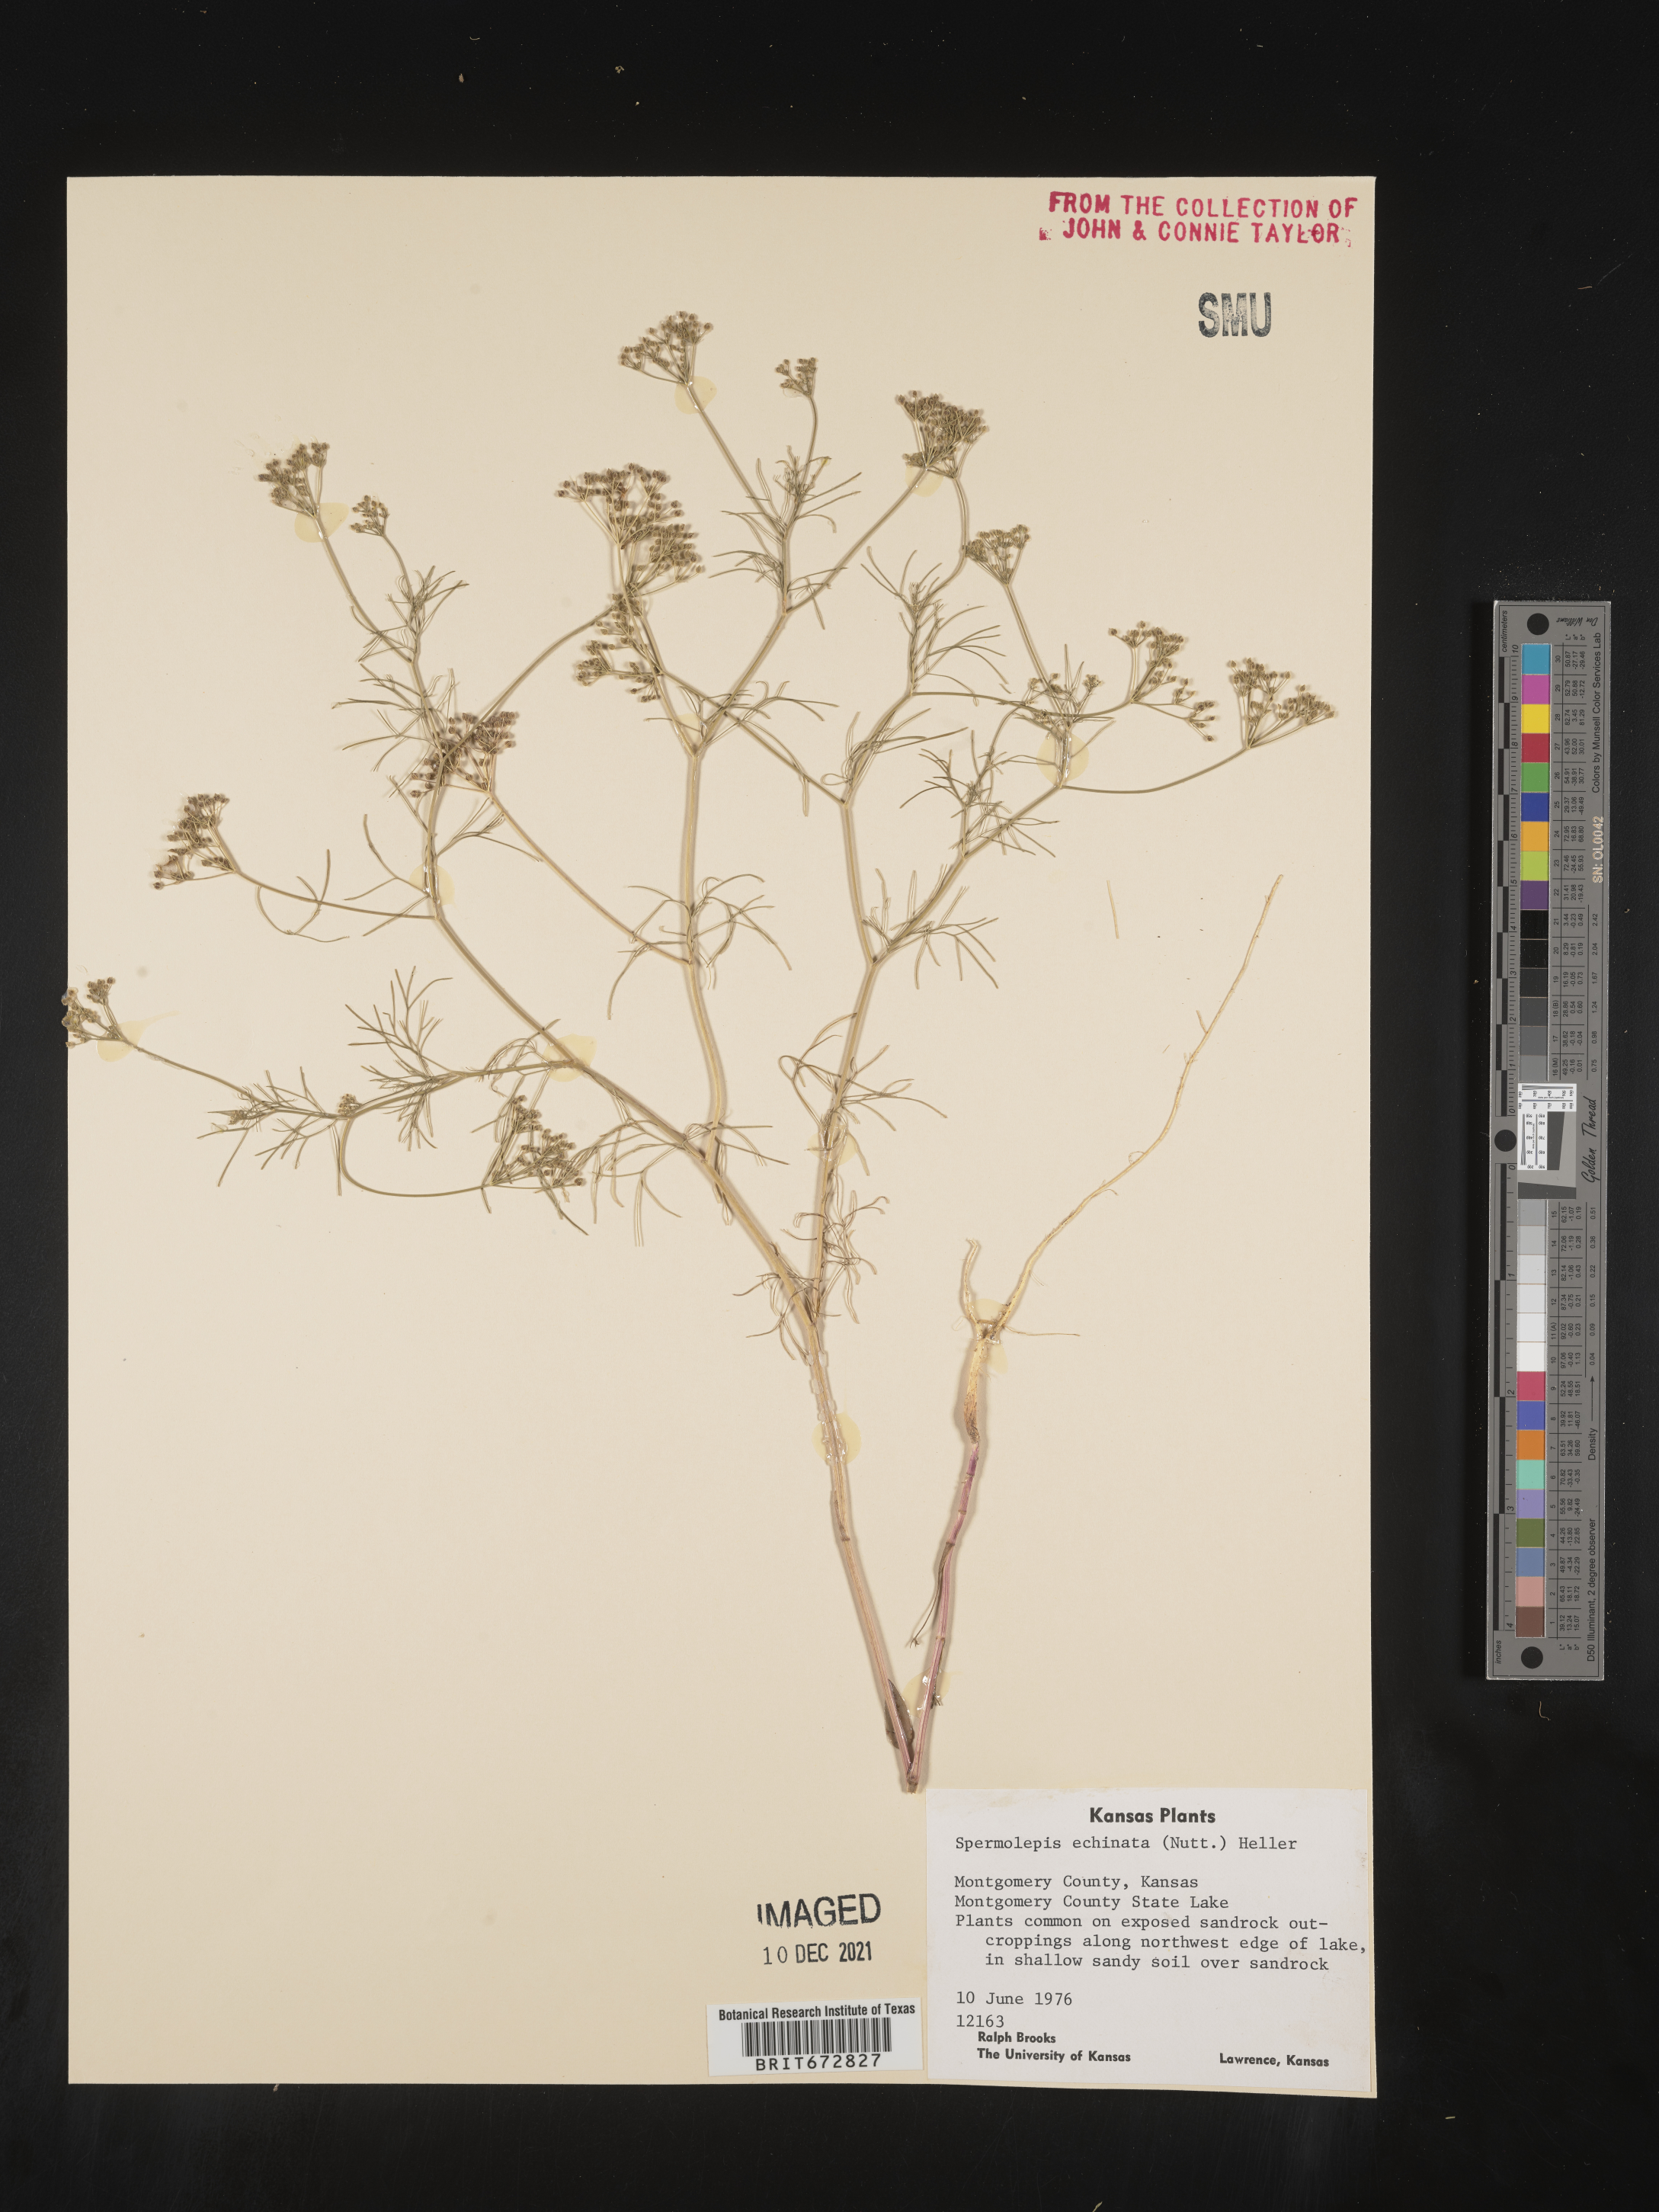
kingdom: Plantae
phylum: Tracheophyta
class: Magnoliopsida
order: Apiales
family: Apiaceae
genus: Spermolepis
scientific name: Spermolepis echinata
